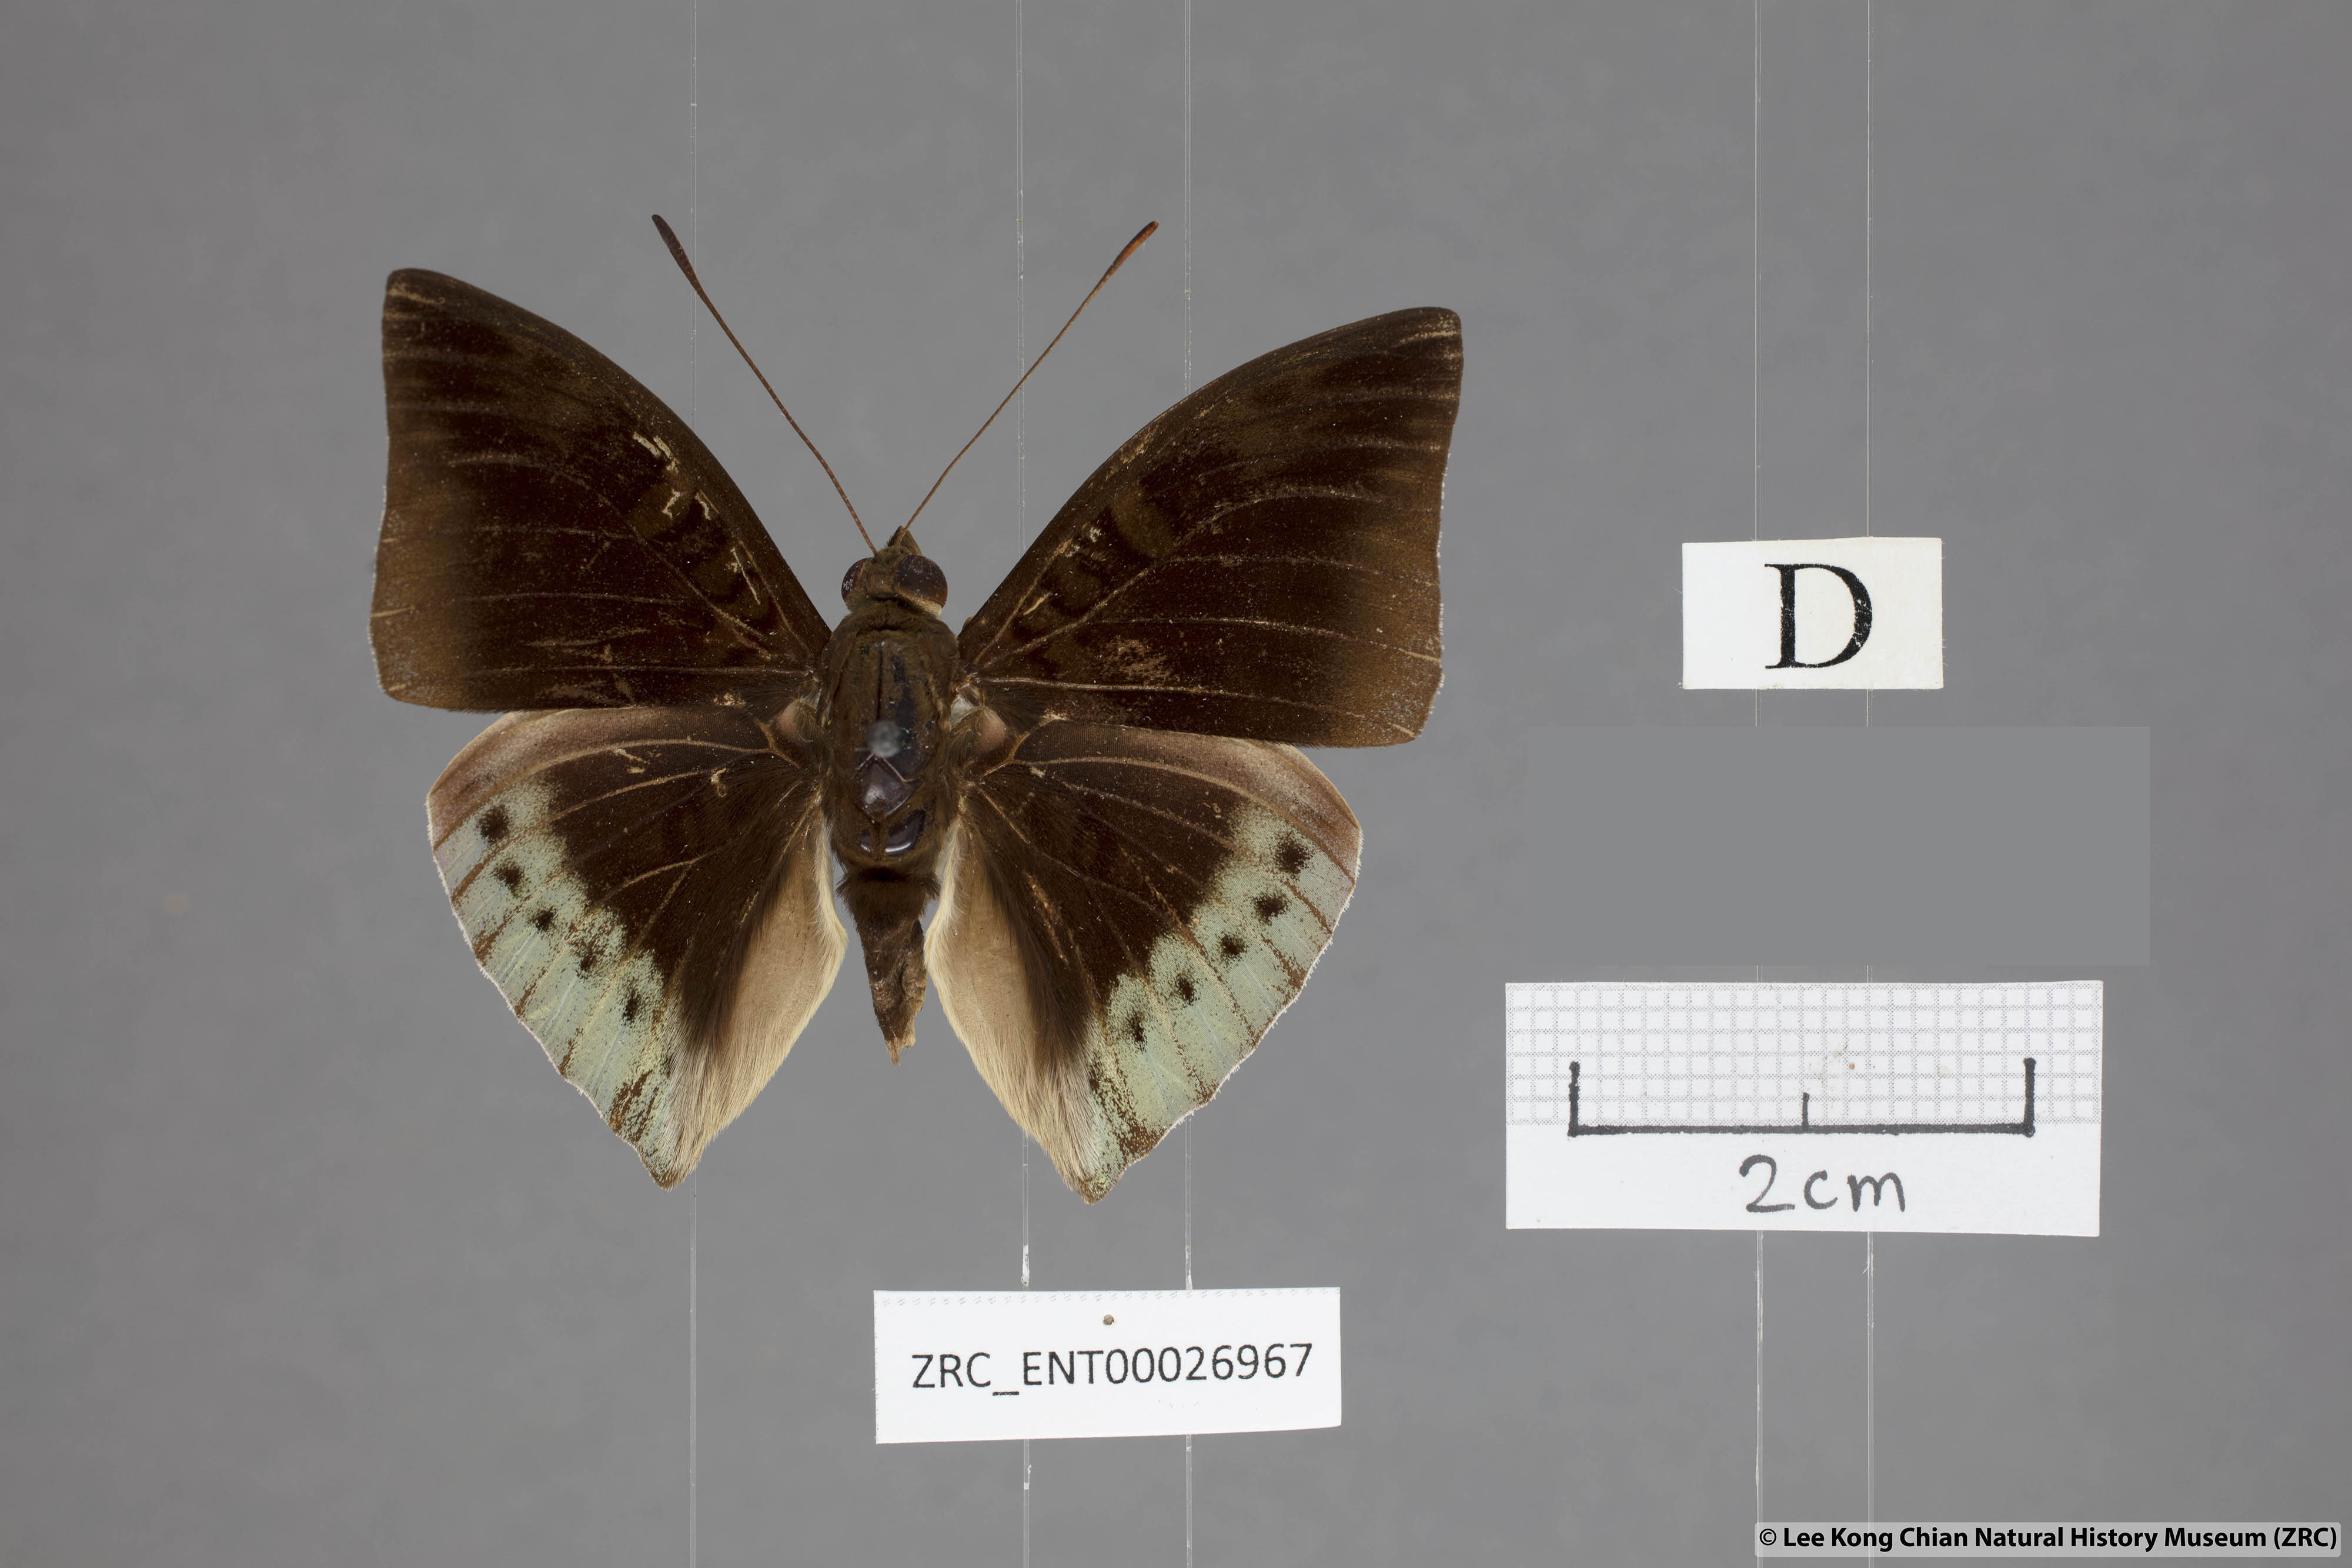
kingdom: Animalia
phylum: Arthropoda
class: Insecta
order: Lepidoptera
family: Nymphalidae
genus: Euthalia
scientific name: Euthalia mahadeva
